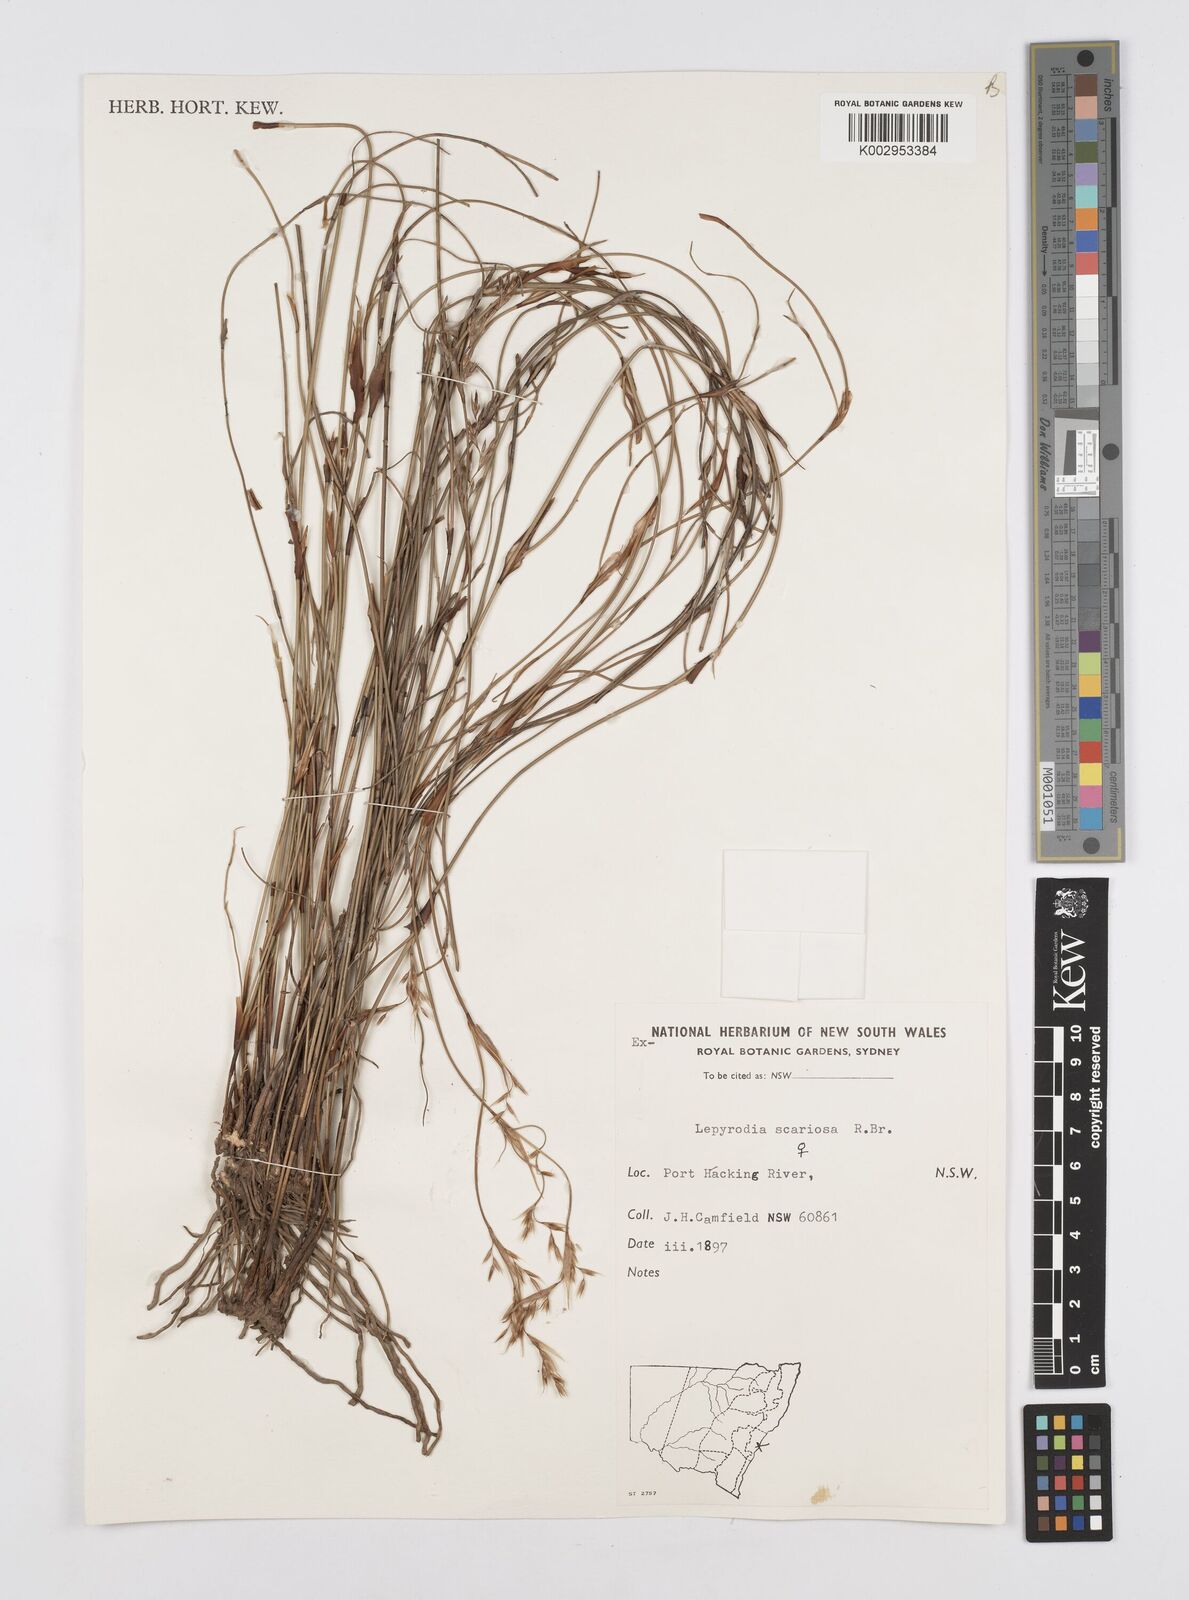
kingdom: Plantae
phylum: Tracheophyta
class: Liliopsida
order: Poales
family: Restionaceae
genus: Lepyrodia
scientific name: Lepyrodia scariosa
